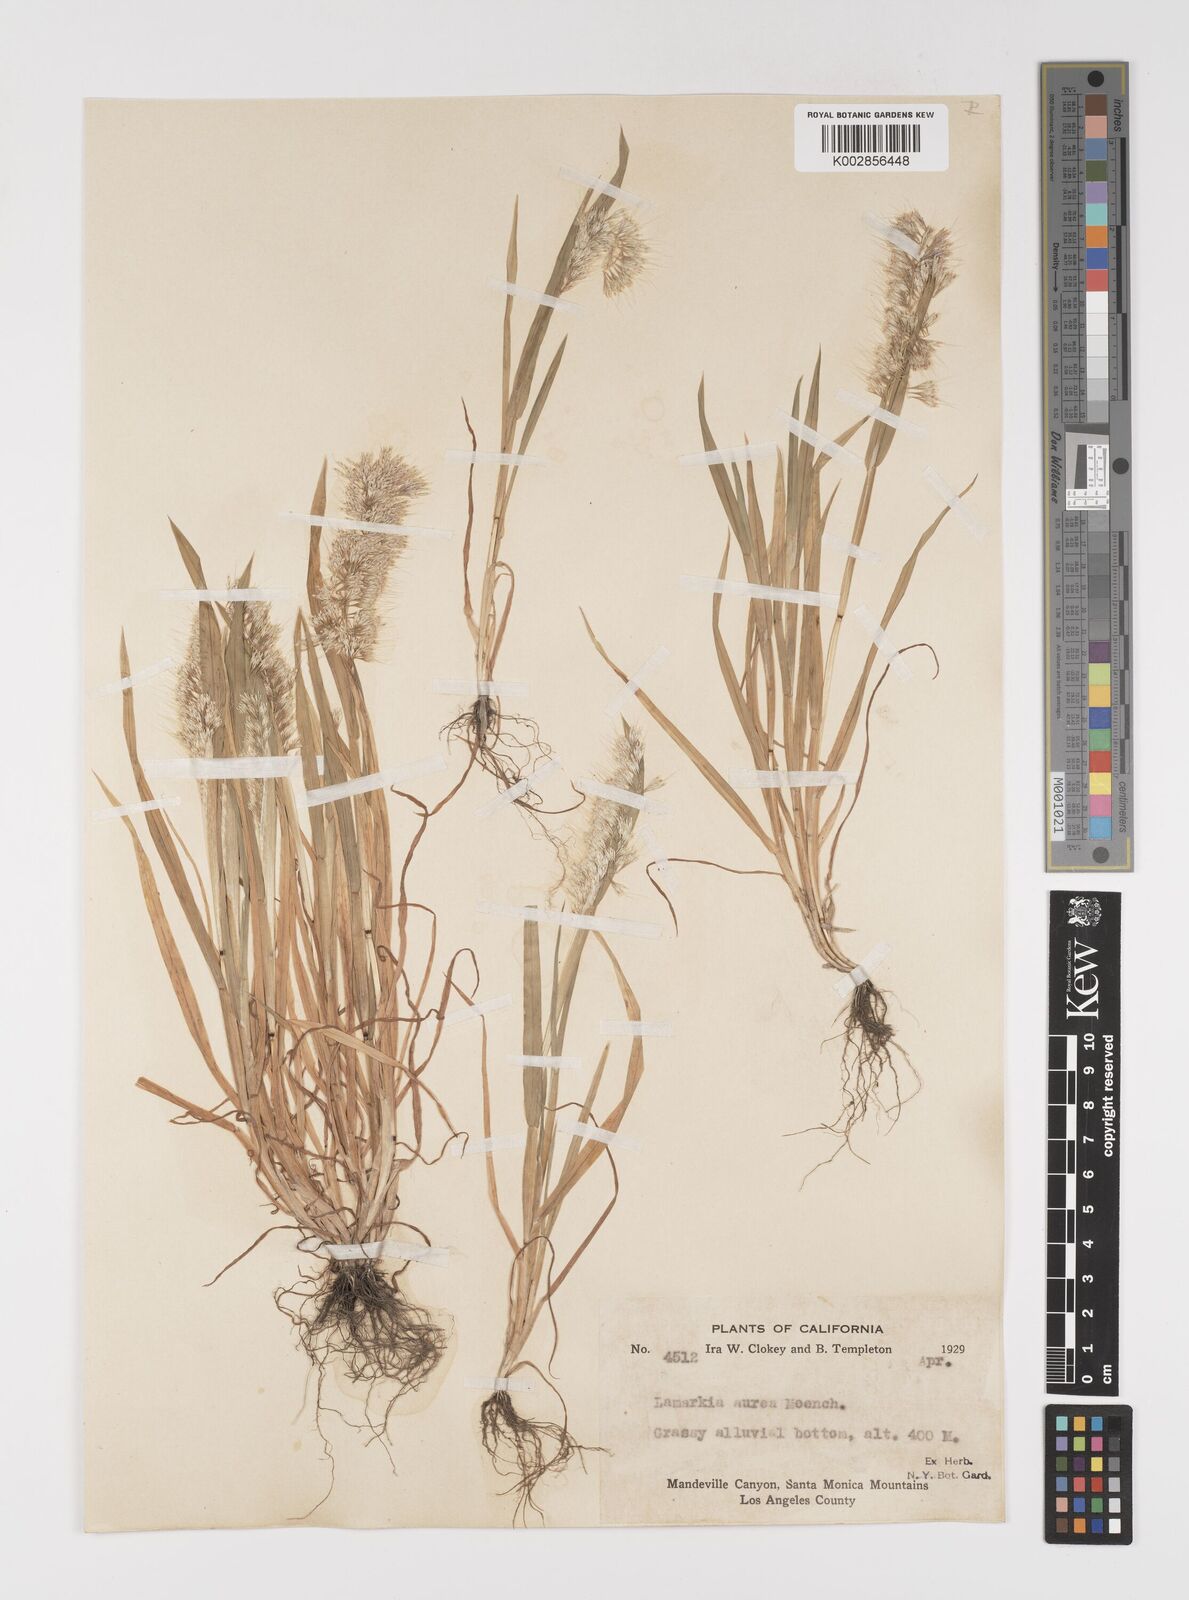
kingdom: Plantae
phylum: Tracheophyta
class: Liliopsida
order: Poales
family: Poaceae
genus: Lamarckia
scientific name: Lamarckia aurea
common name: Golden dog's-tail
